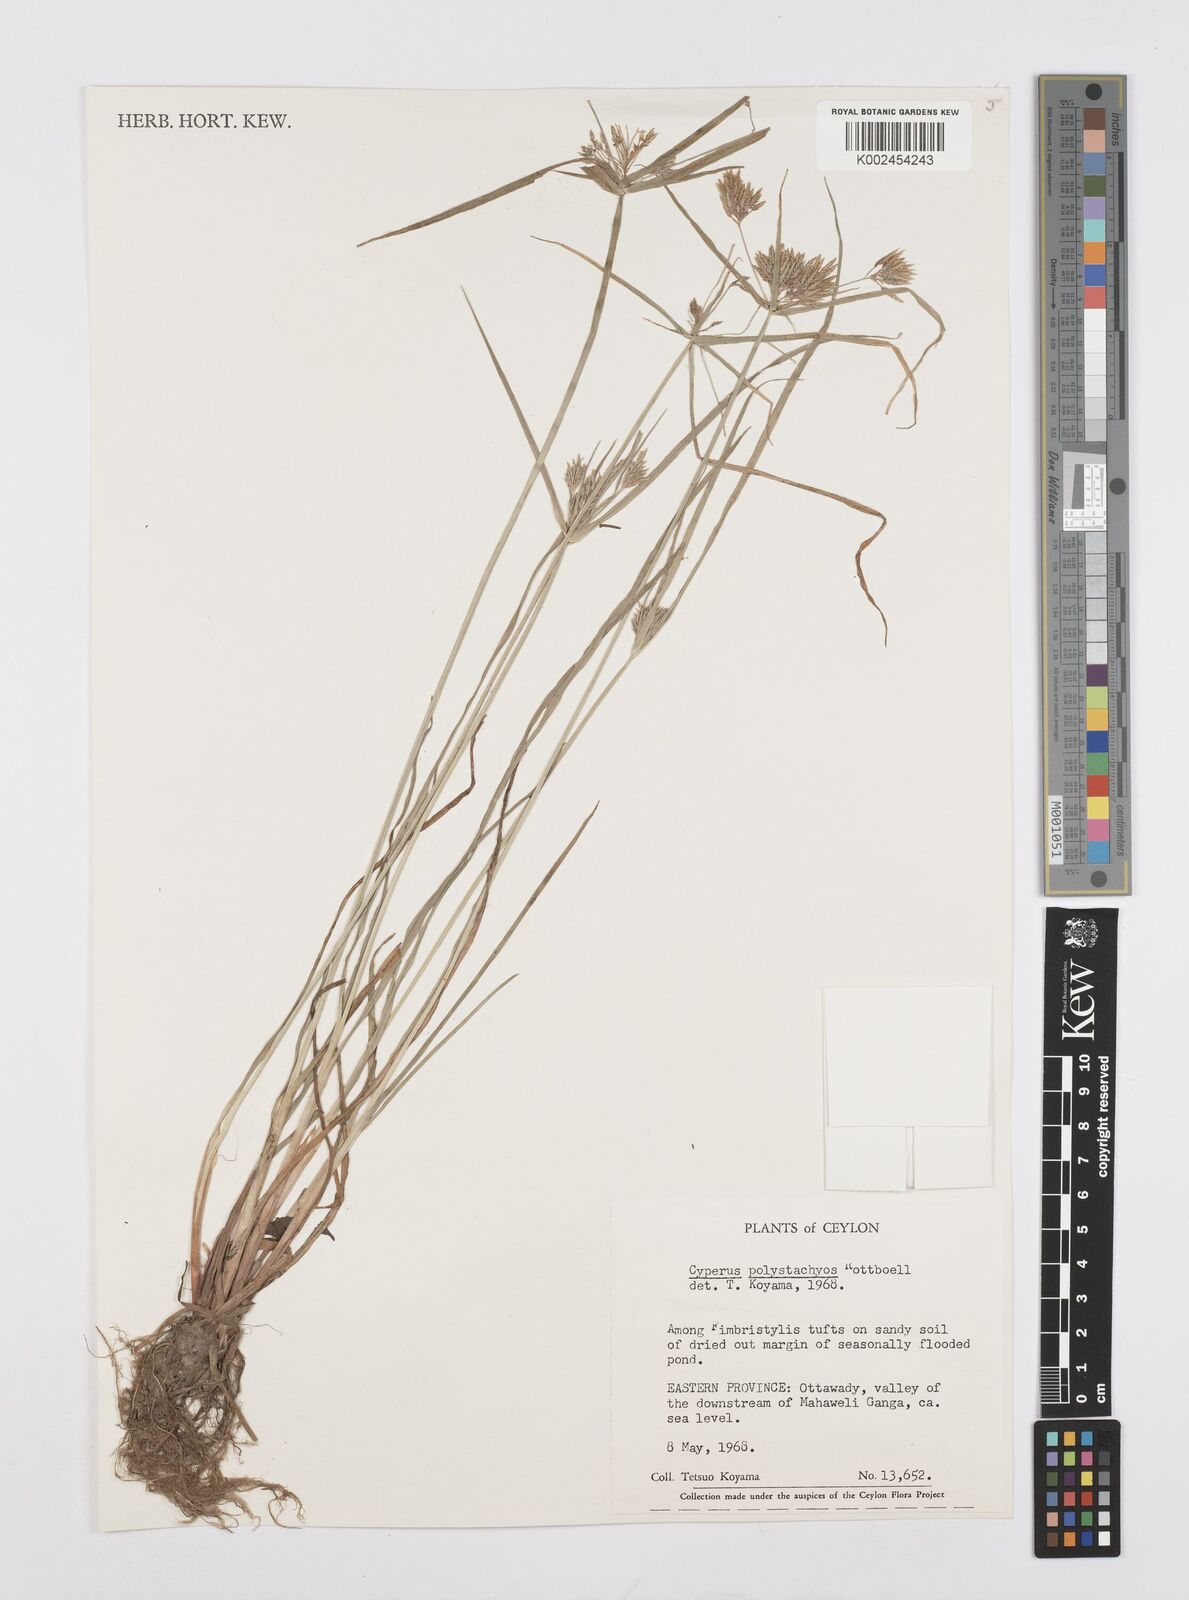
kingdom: Plantae
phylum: Tracheophyta
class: Liliopsida
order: Poales
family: Cyperaceae
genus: Cyperus
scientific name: Cyperus polystachyos
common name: Bunchy flat sedge
